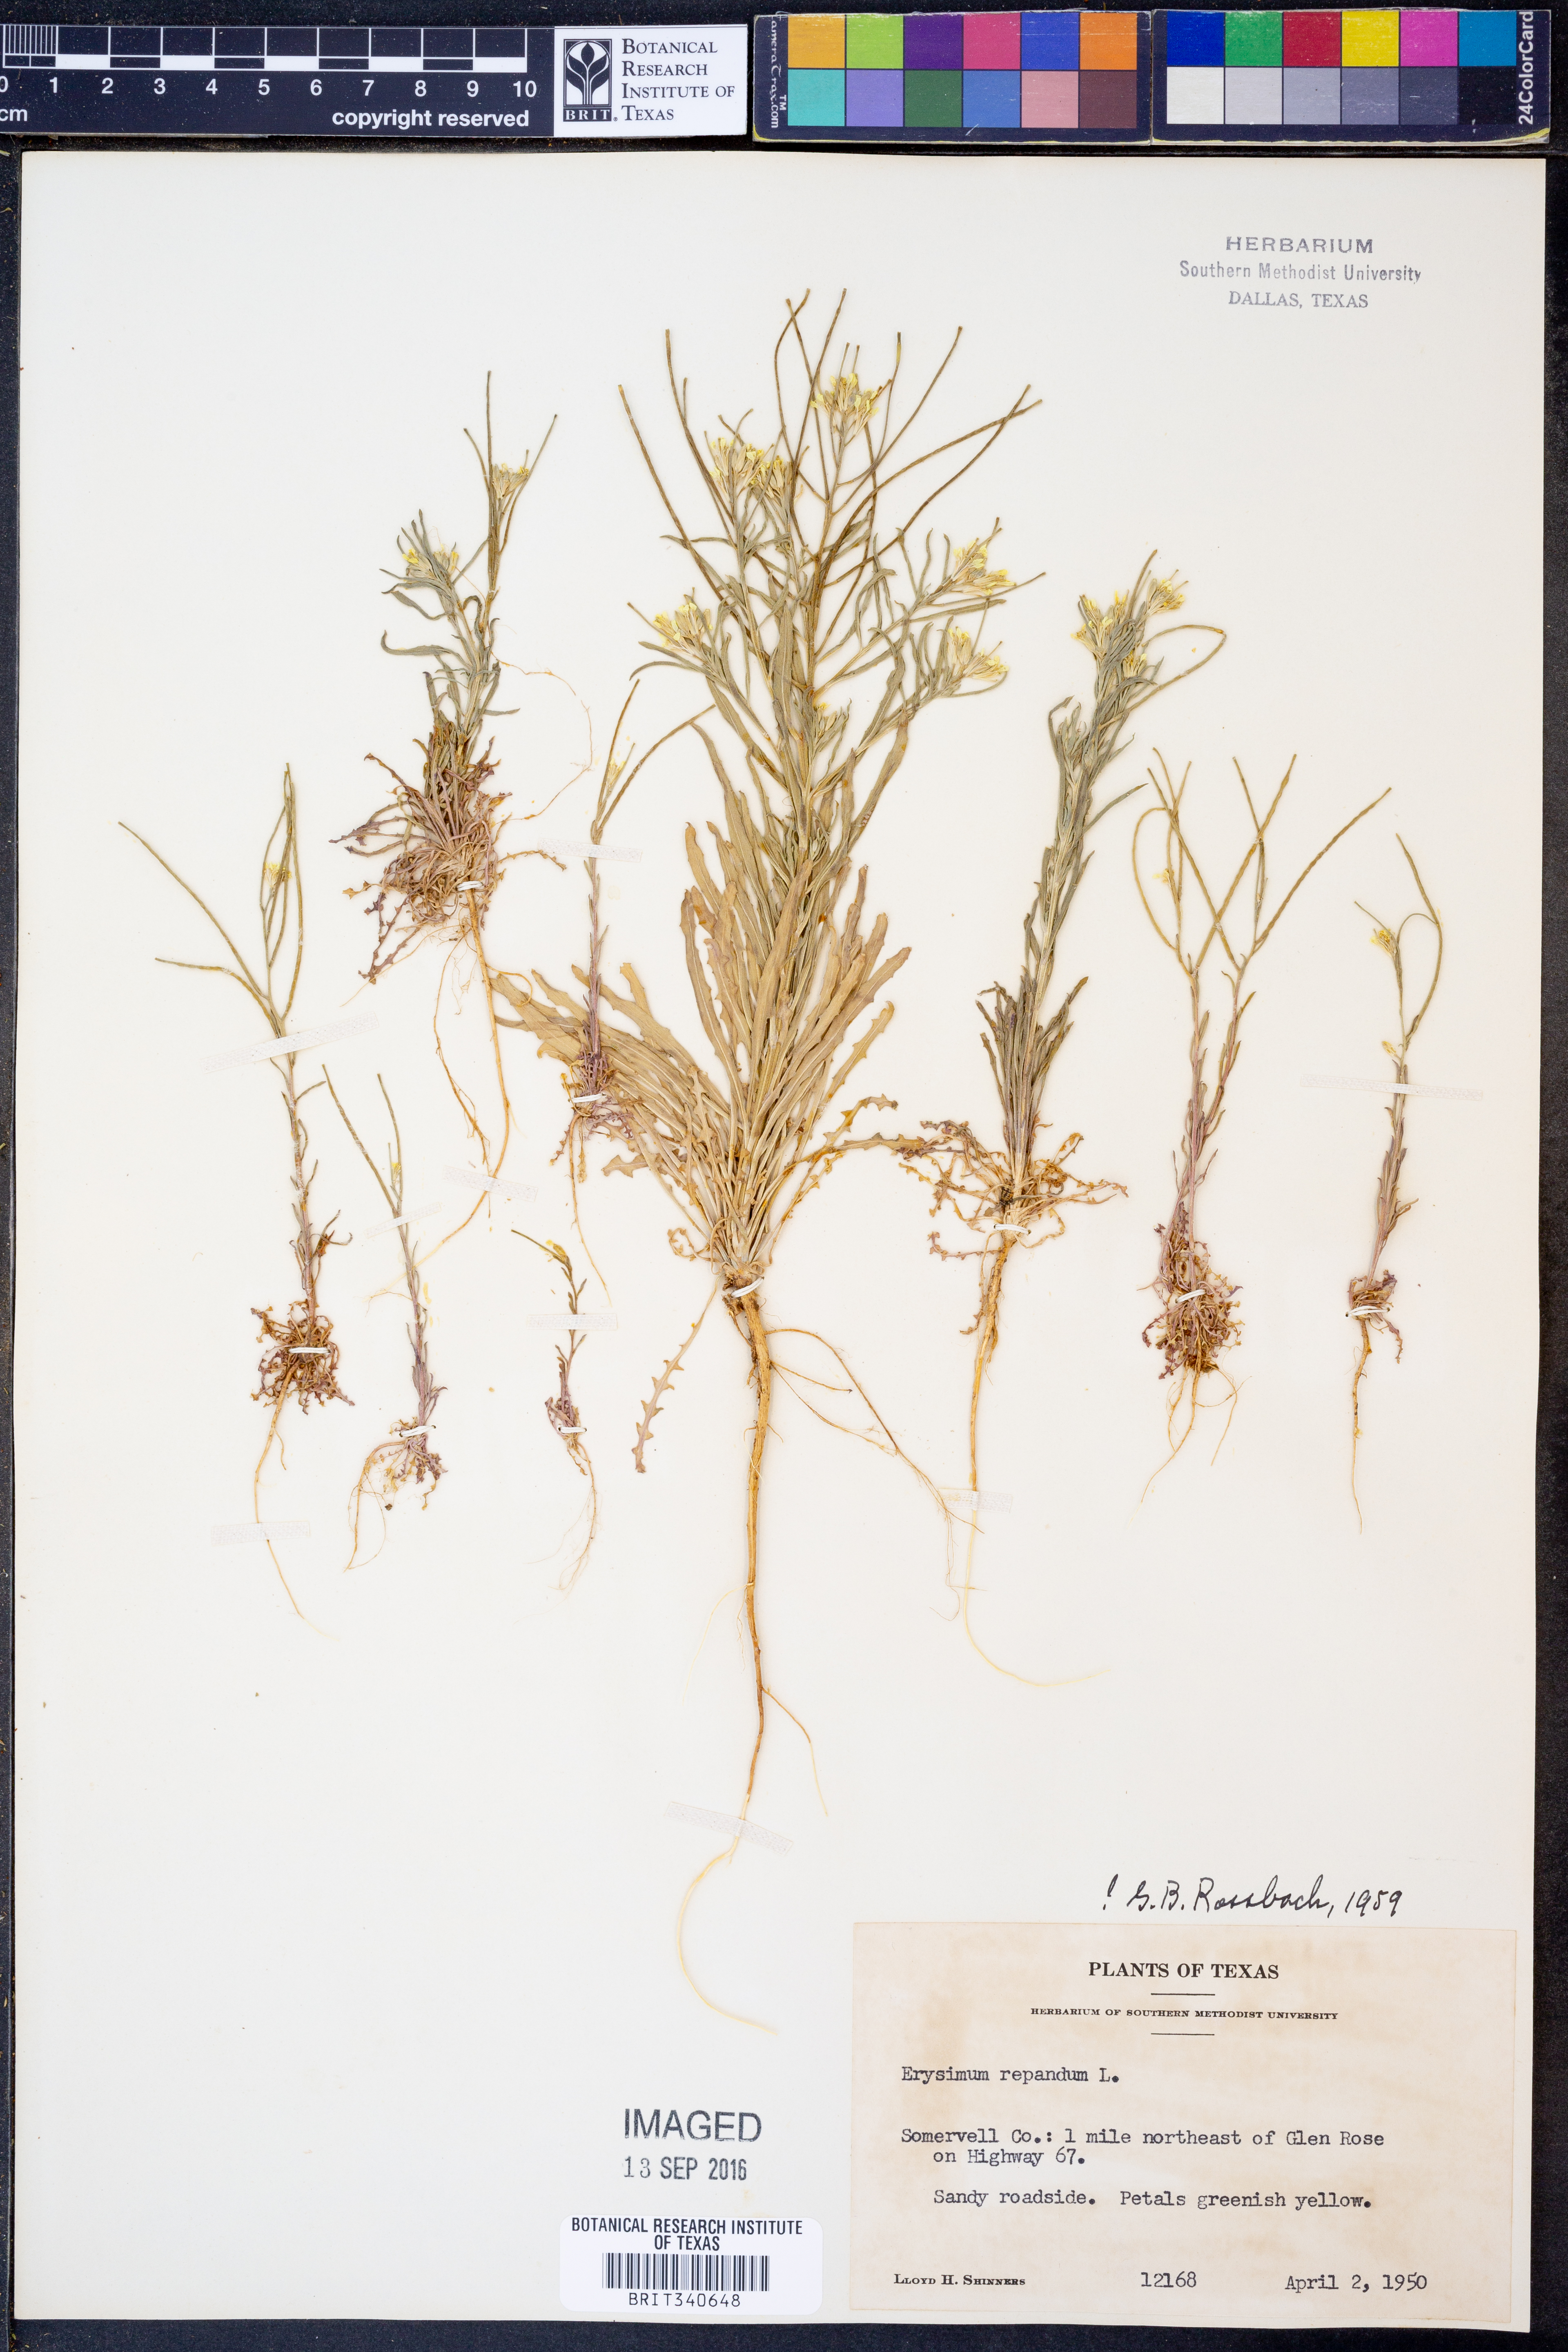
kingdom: Plantae
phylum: Tracheophyta
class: Magnoliopsida
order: Brassicales
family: Brassicaceae
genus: Erysimum
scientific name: Erysimum repandum
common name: Spreading wallflower
